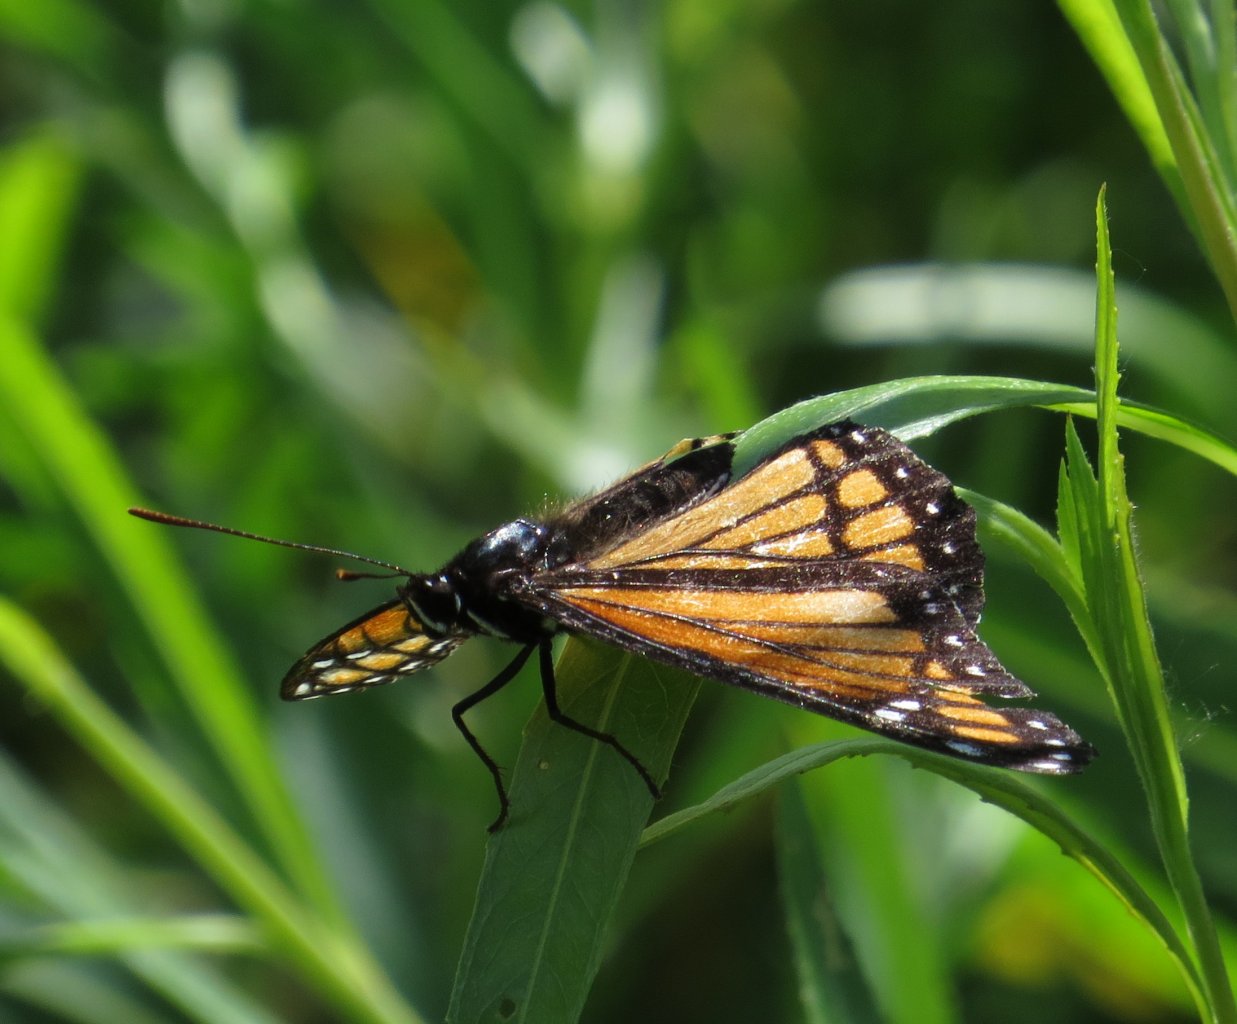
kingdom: Animalia
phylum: Arthropoda
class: Insecta
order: Lepidoptera
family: Nymphalidae
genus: Limenitis
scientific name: Limenitis archippus
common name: Viceroy
